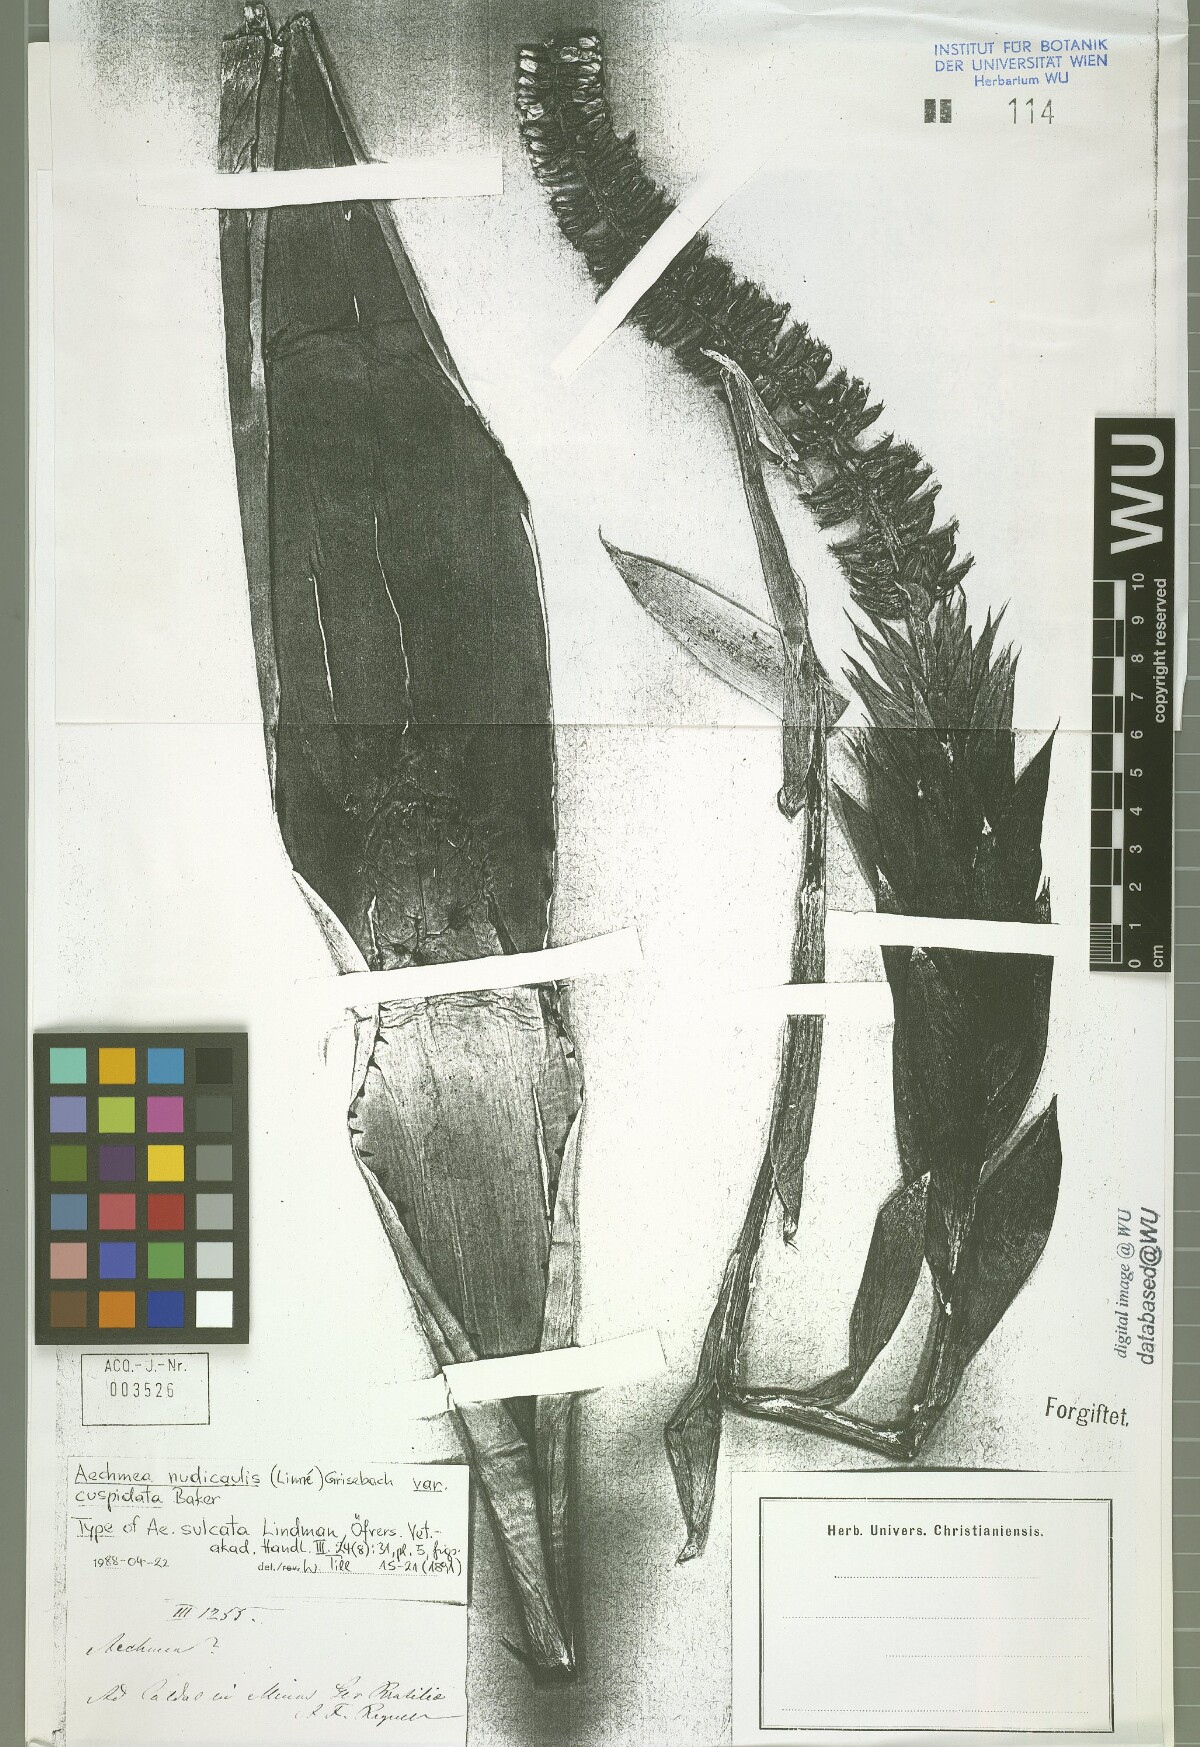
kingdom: Plantae
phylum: Tracheophyta
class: Liliopsida
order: Poales
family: Bromeliaceae
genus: Aechmea
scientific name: Aechmea nudicaulis
